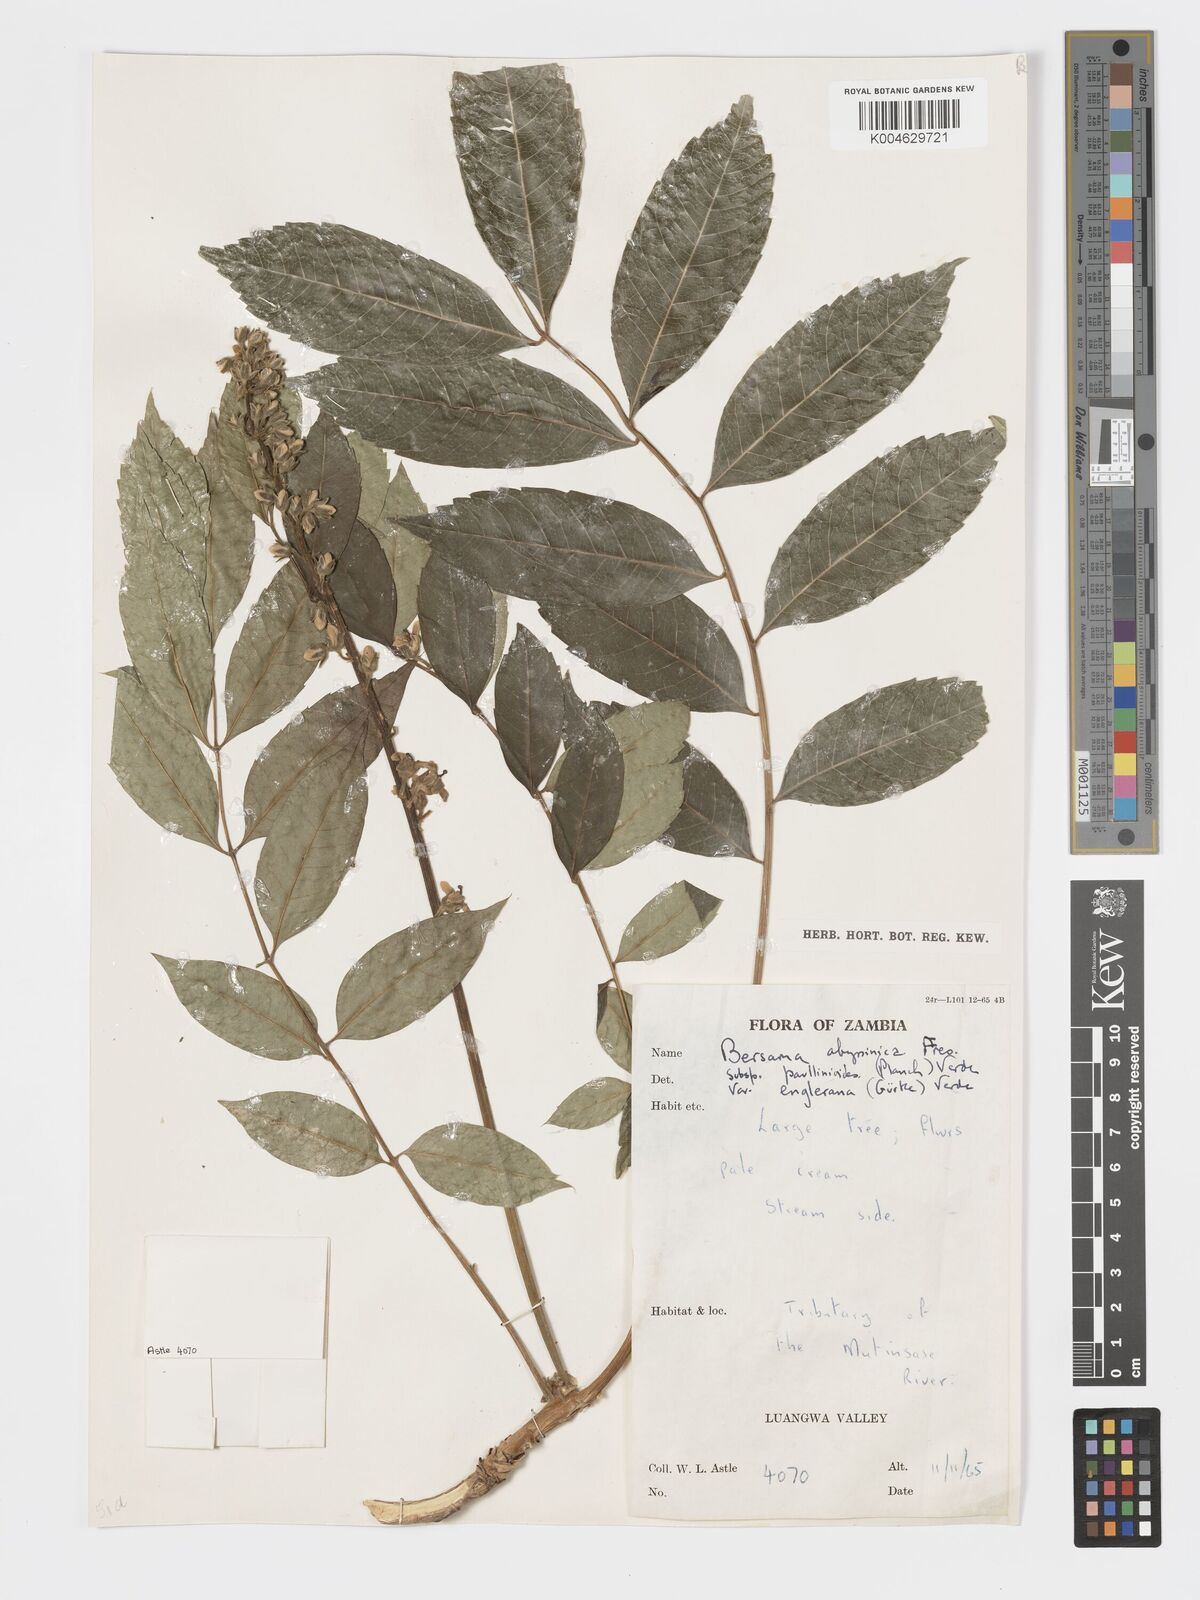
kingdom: Plantae
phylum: Tracheophyta
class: Magnoliopsida
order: Geraniales
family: Melianthaceae
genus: Bersama
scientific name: Bersama abyssinica
